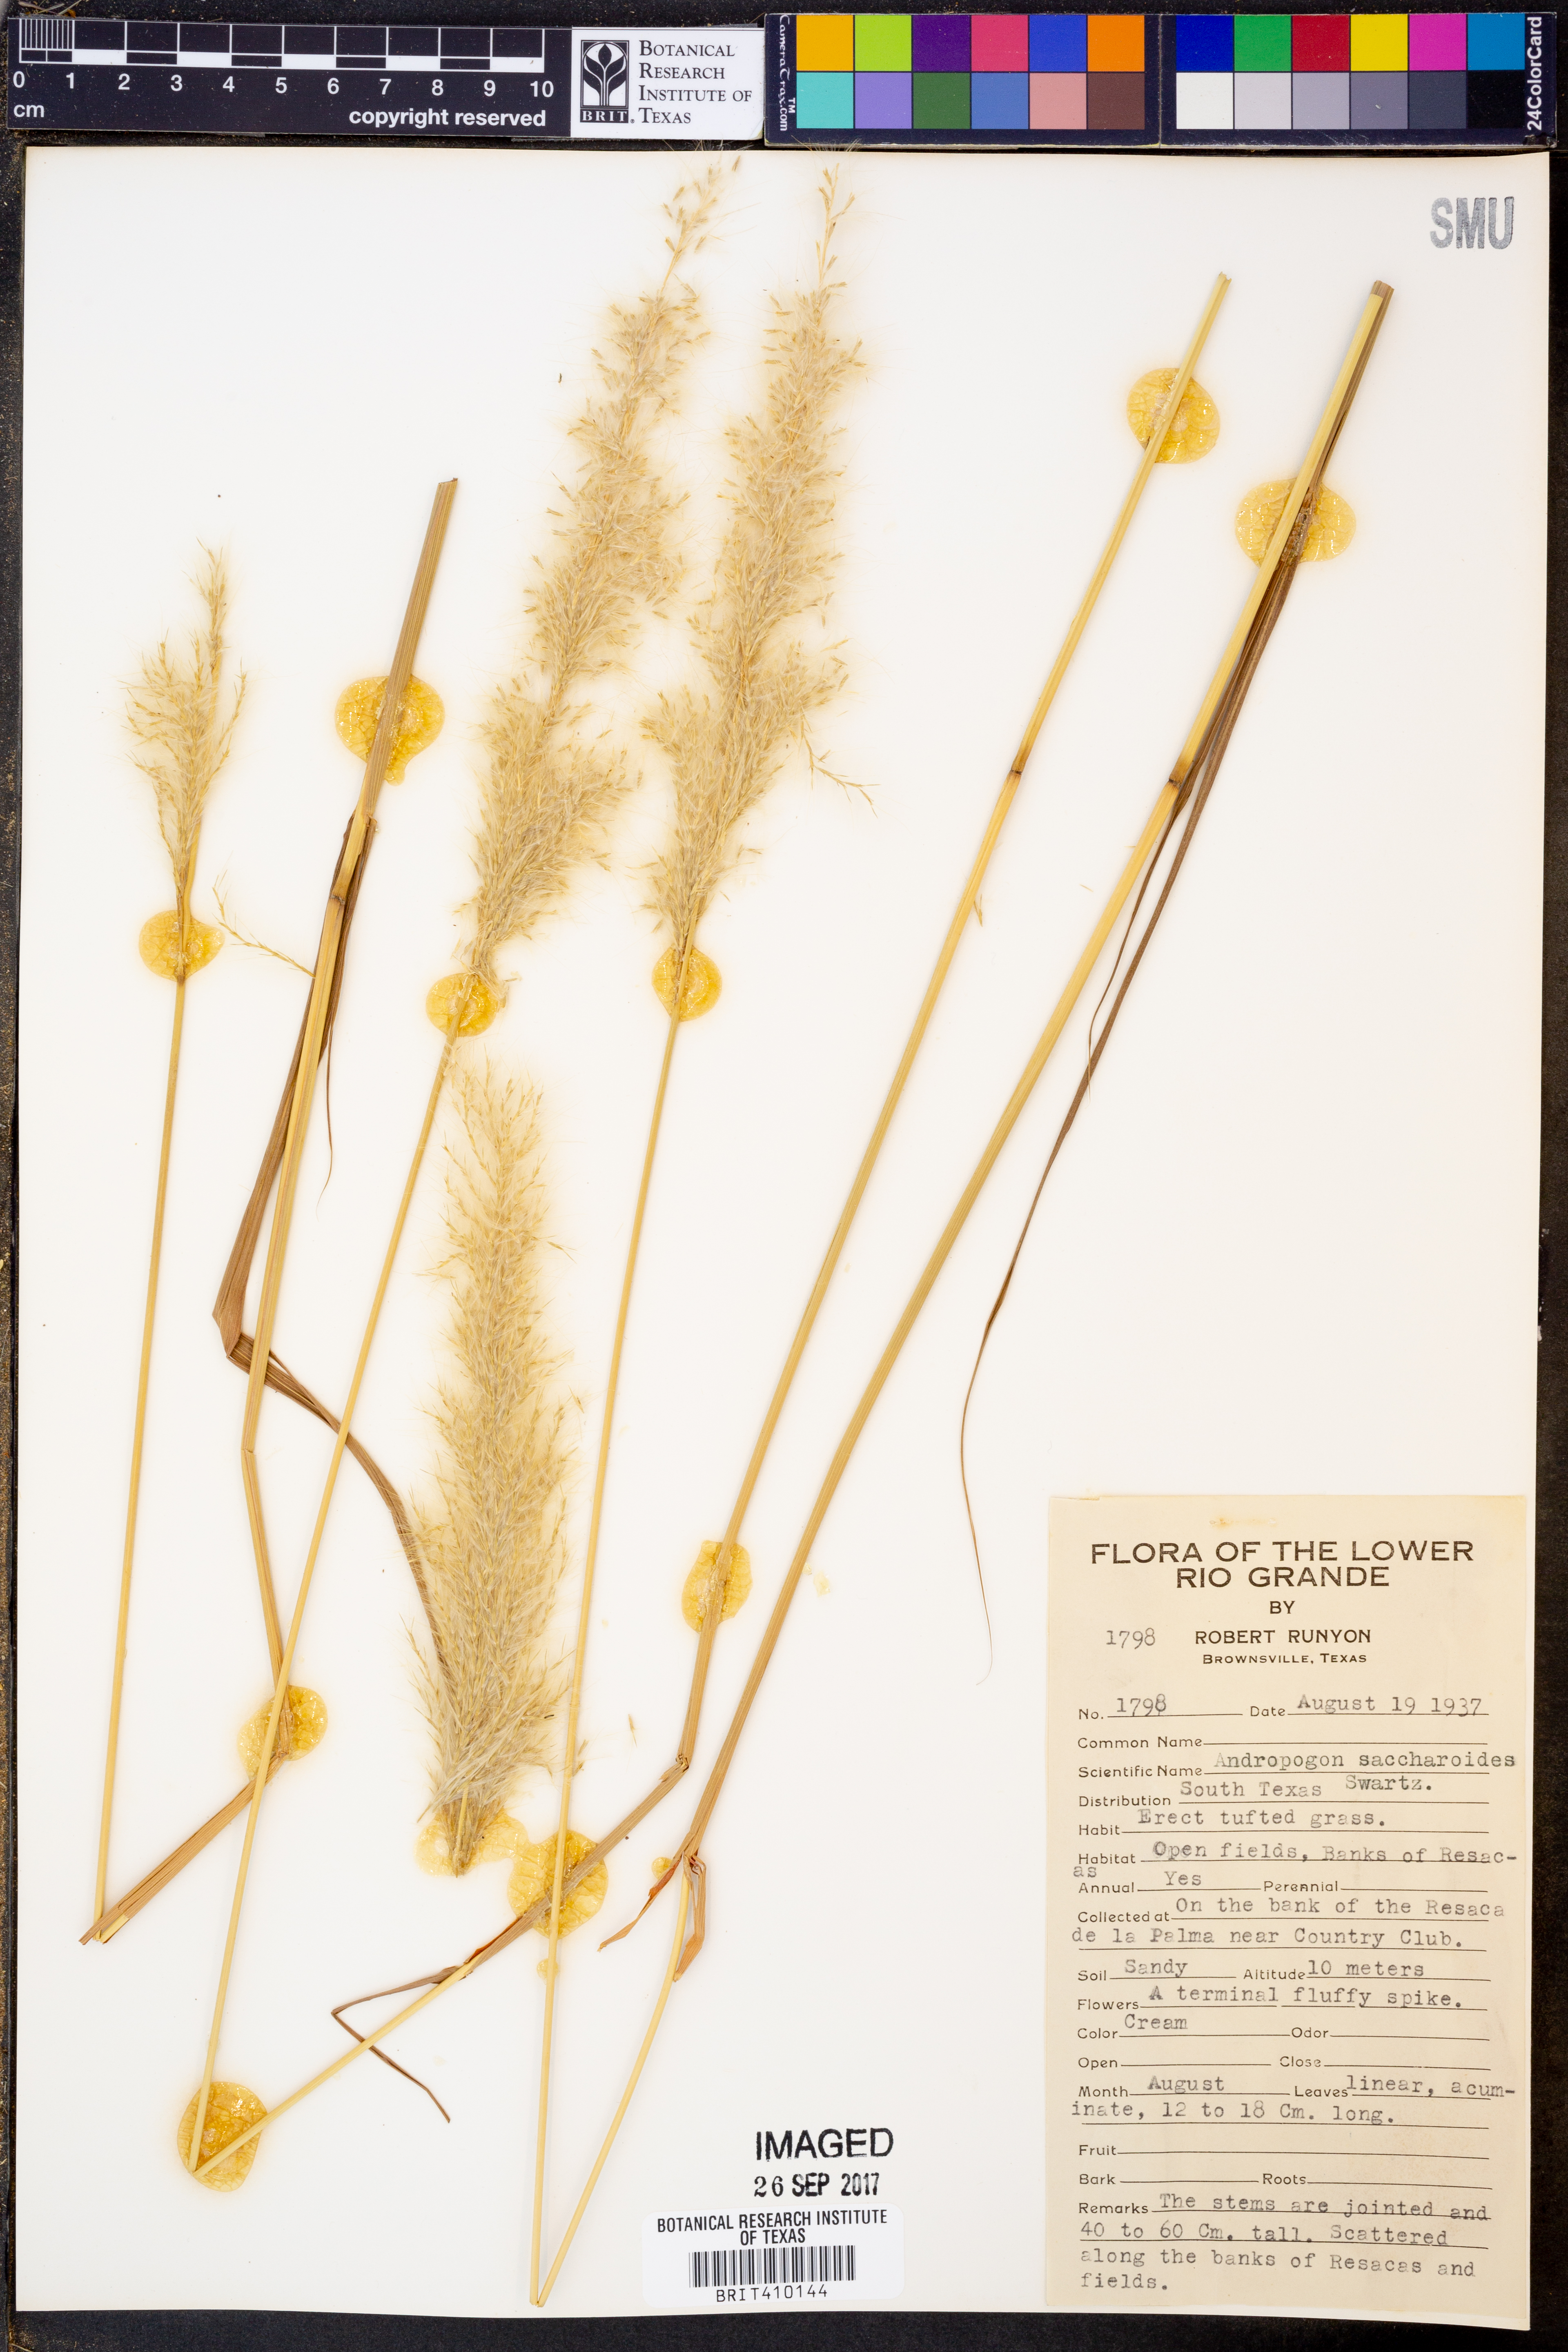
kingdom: Plantae
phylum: Tracheophyta
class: Liliopsida
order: Poales
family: Poaceae
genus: Bothriochloa
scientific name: Bothriochloa saccharoides
